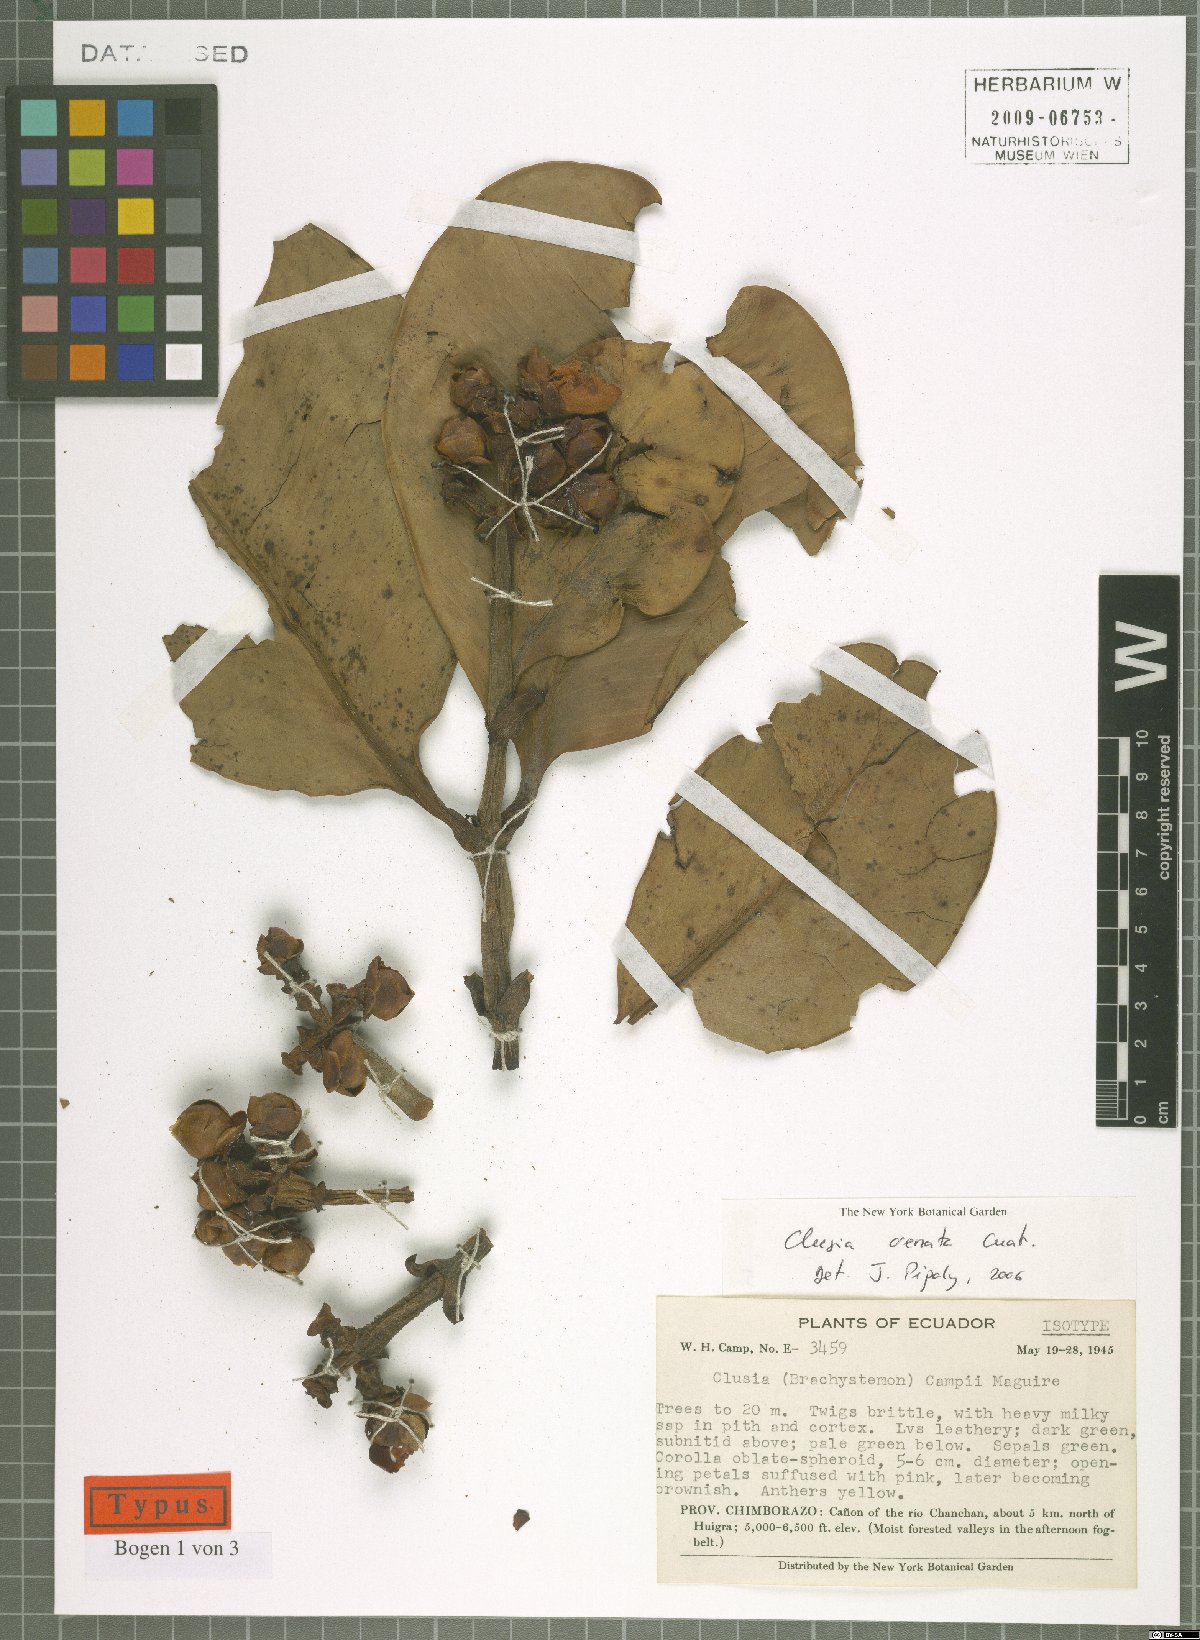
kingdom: Plantae
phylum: Tracheophyta
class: Magnoliopsida
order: Malpighiales
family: Clusiaceae
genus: Clusia
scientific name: Clusia crenata
